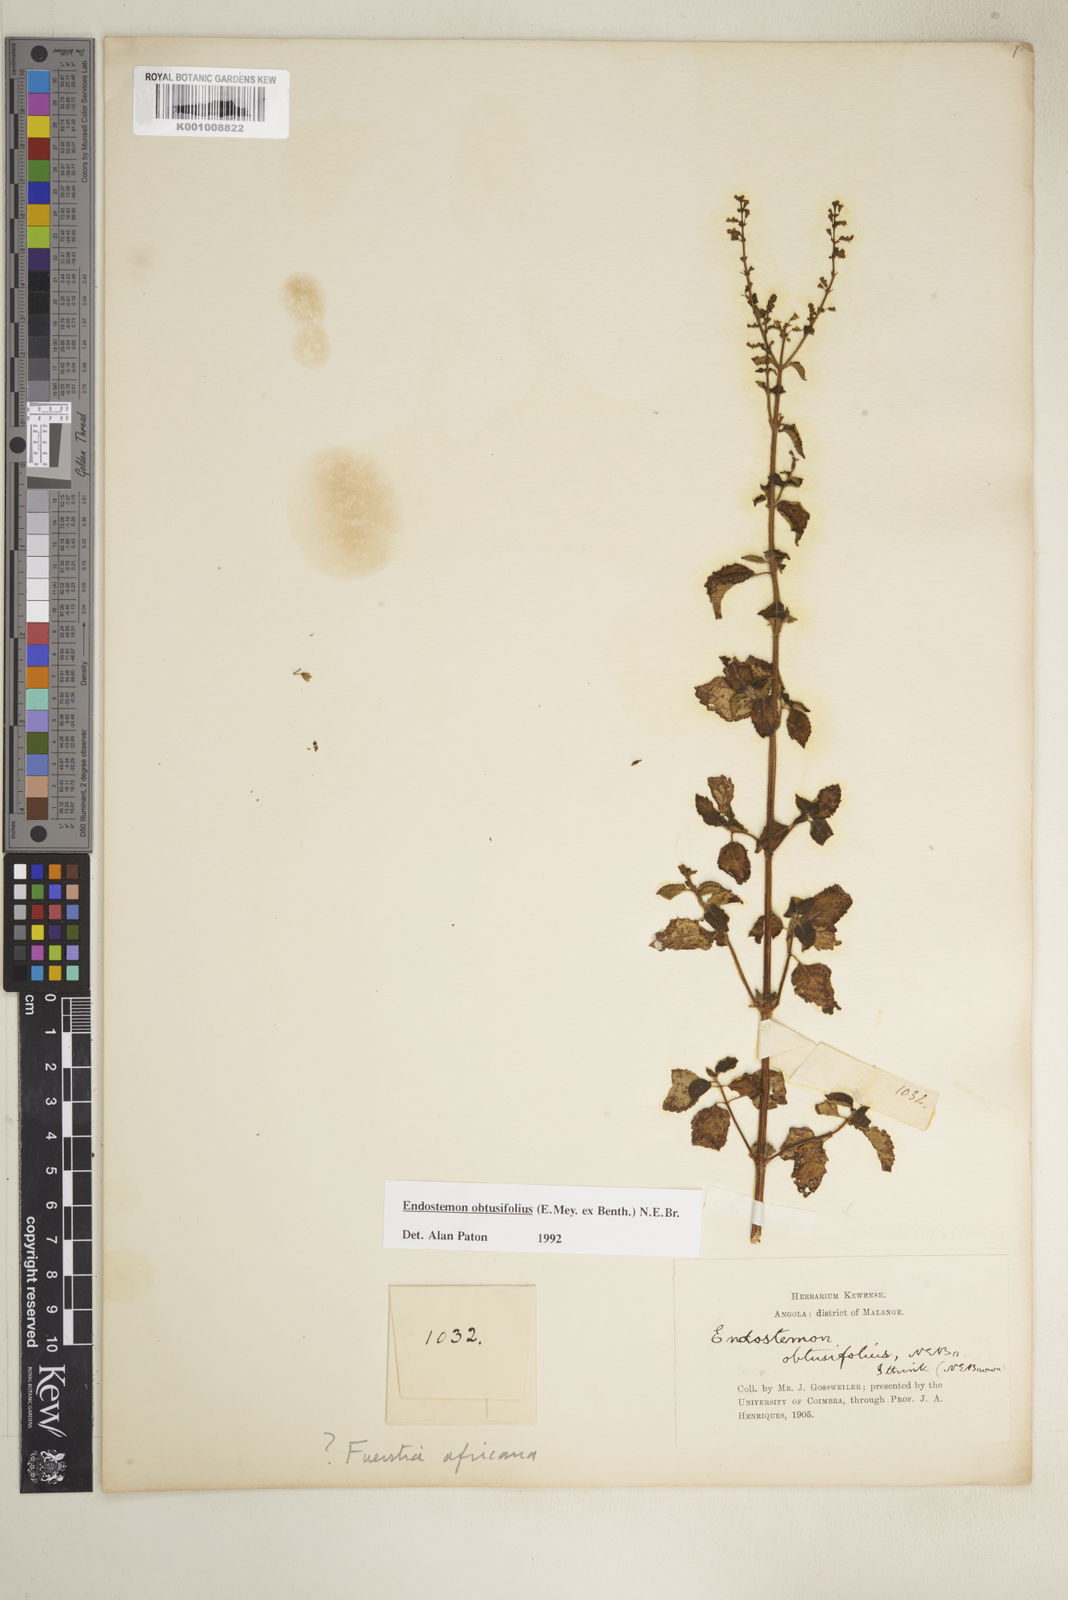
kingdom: Plantae
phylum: Tracheophyta
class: Magnoliopsida
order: Lamiales
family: Lamiaceae
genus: Endostemon
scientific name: Endostemon obtusifolius
